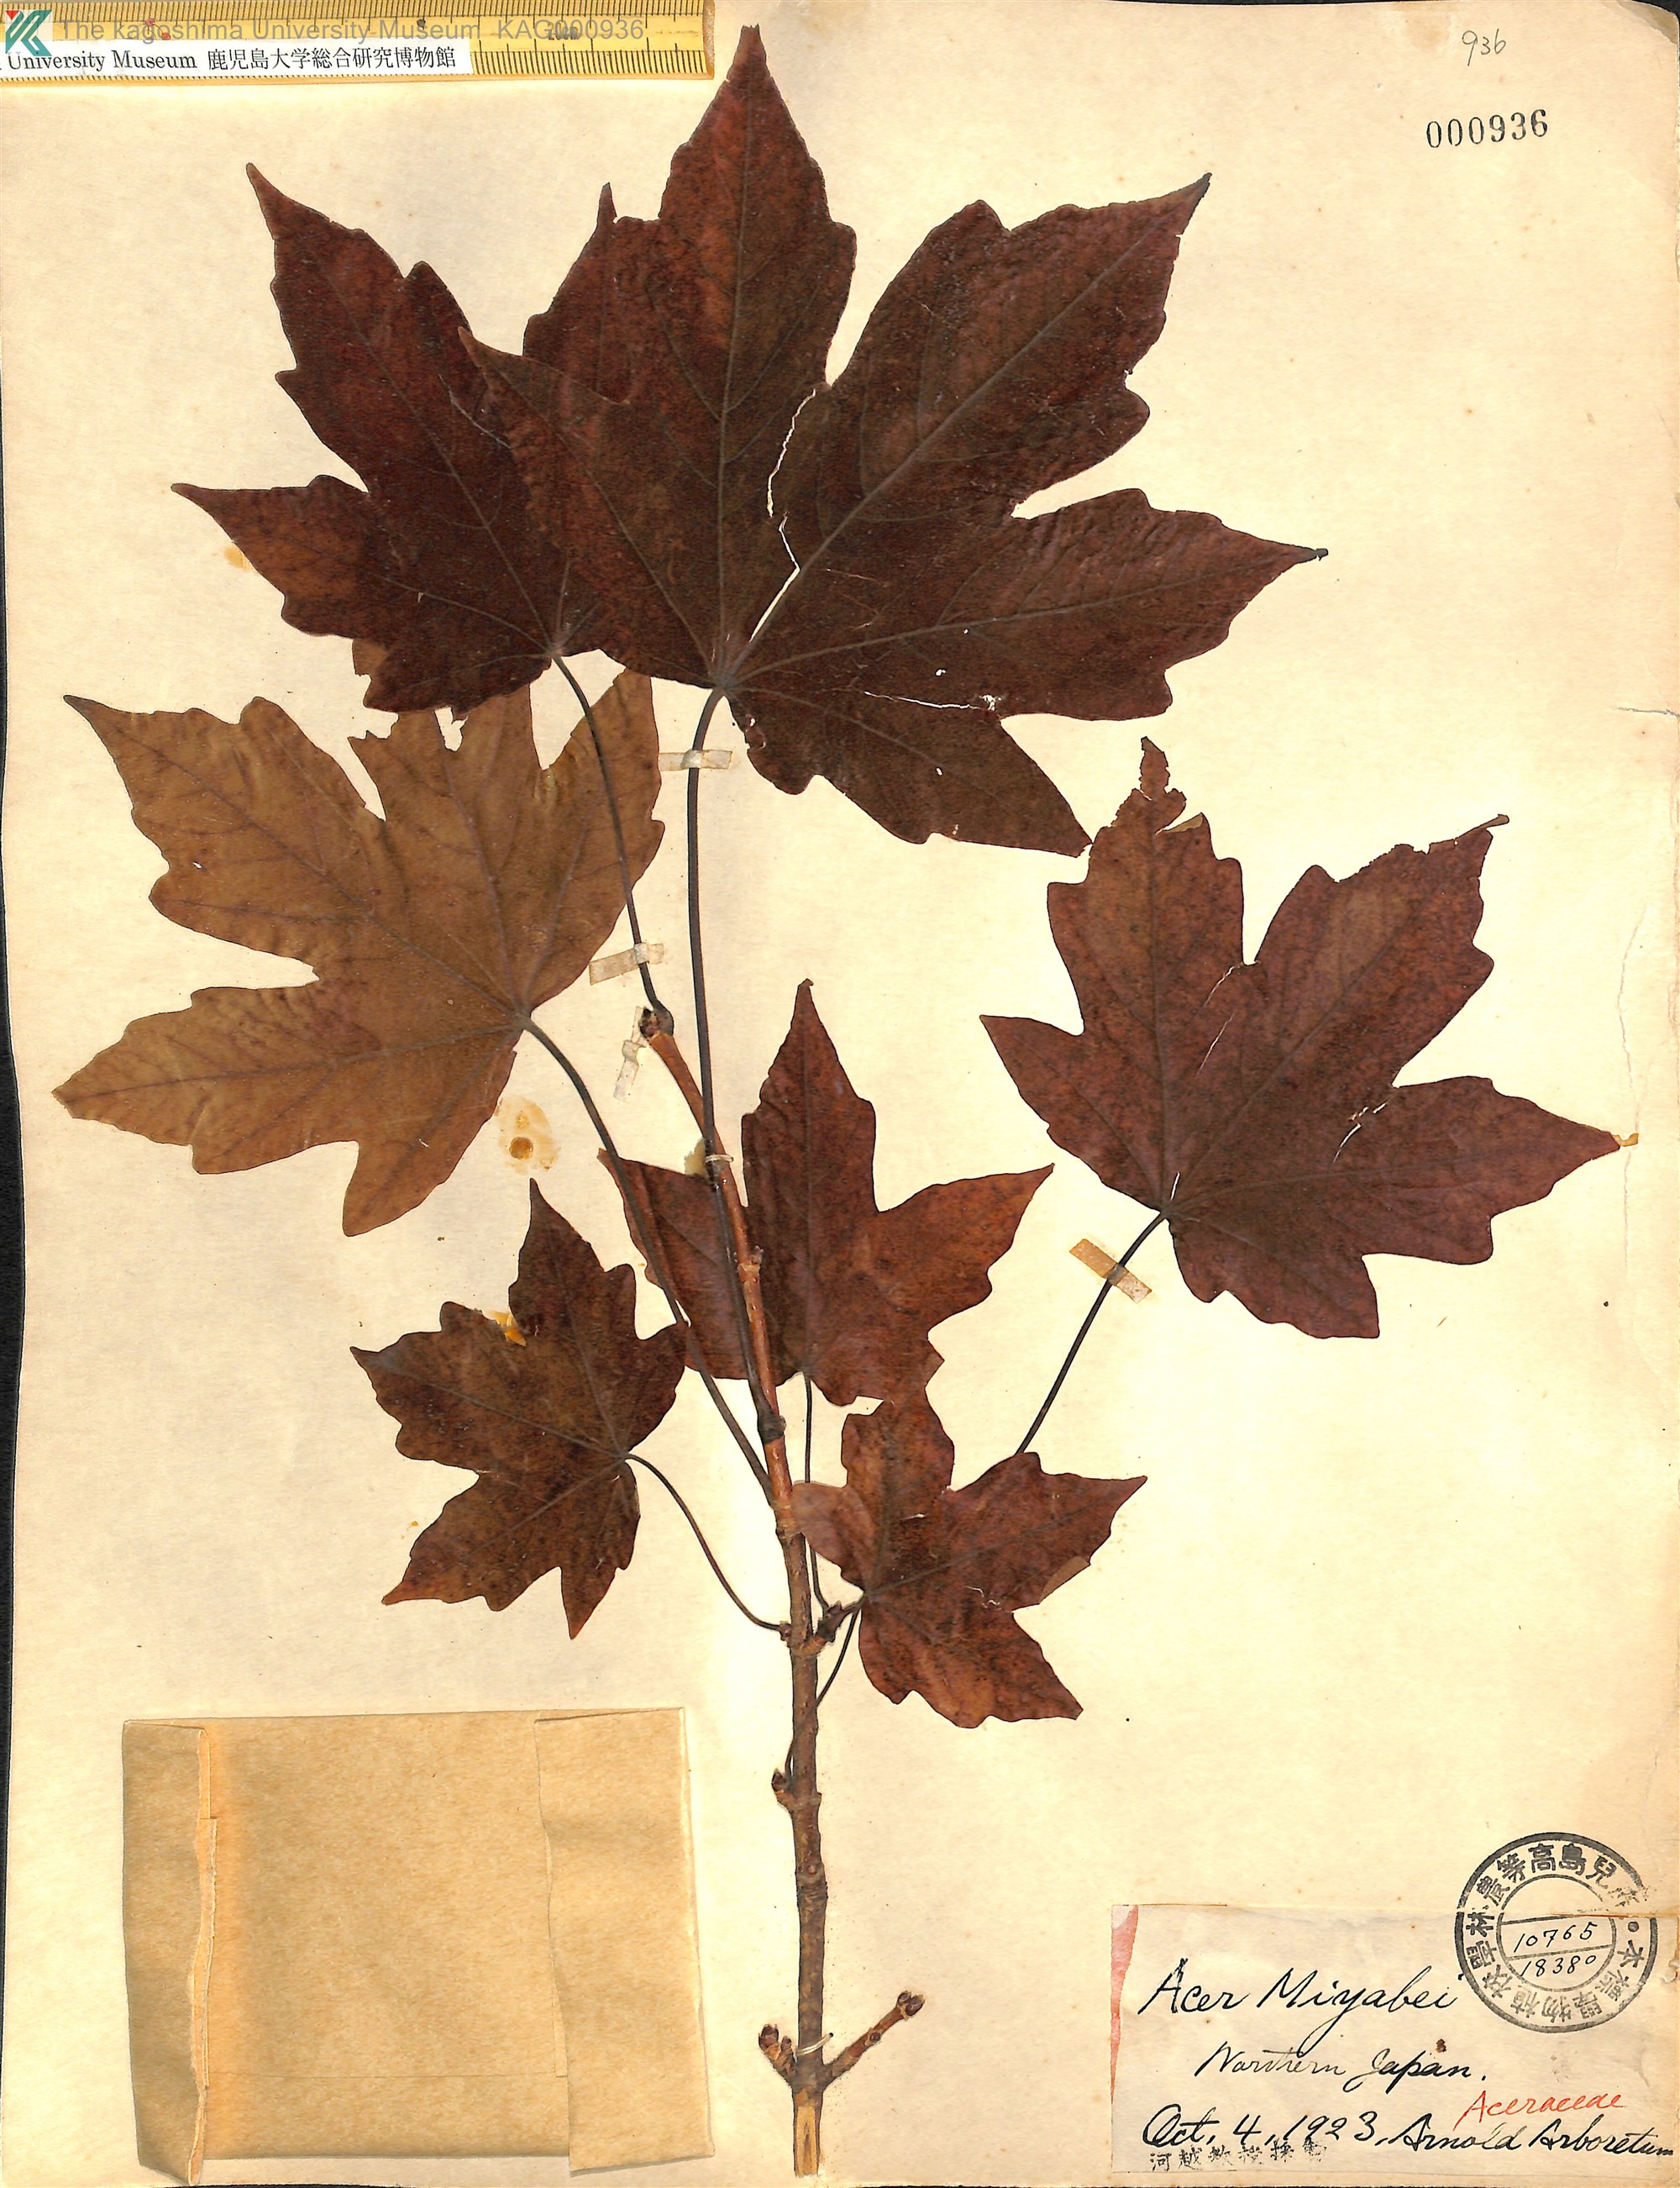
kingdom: Plantae
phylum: Tracheophyta
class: Magnoliopsida
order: Sapindales
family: Sapindaceae
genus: Acer
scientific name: Acer miyabei
